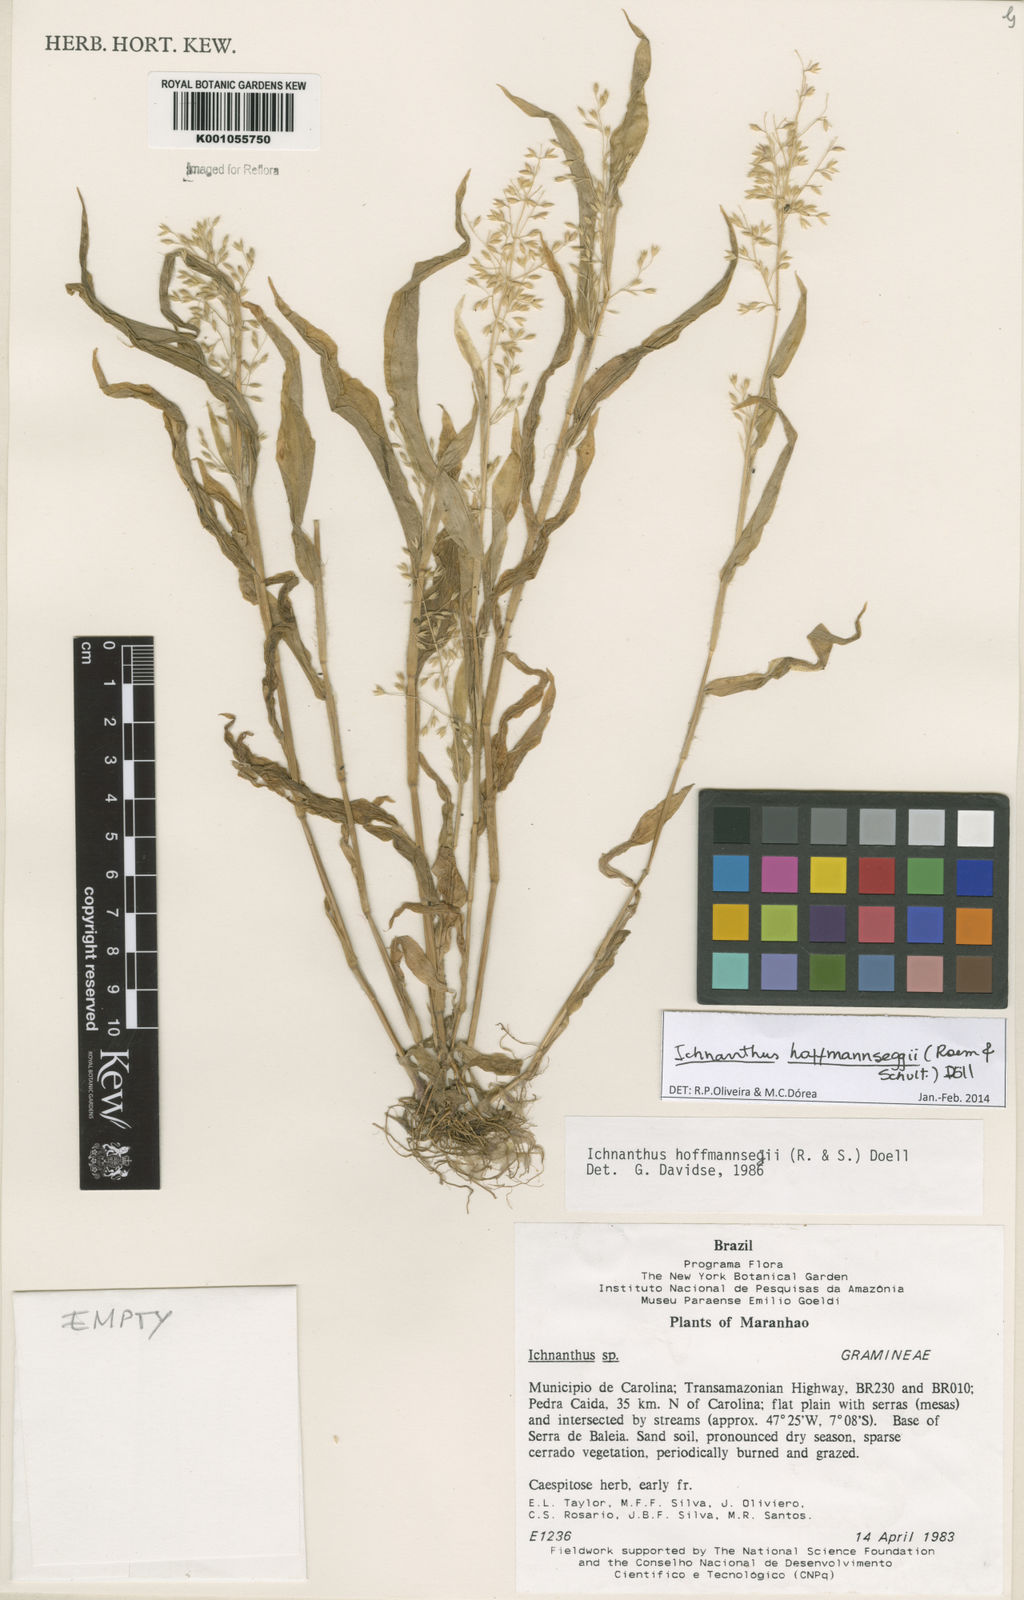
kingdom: Plantae
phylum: Tracheophyta
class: Liliopsida
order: Poales
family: Poaceae
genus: Ichnanthus
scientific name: Ichnanthus
